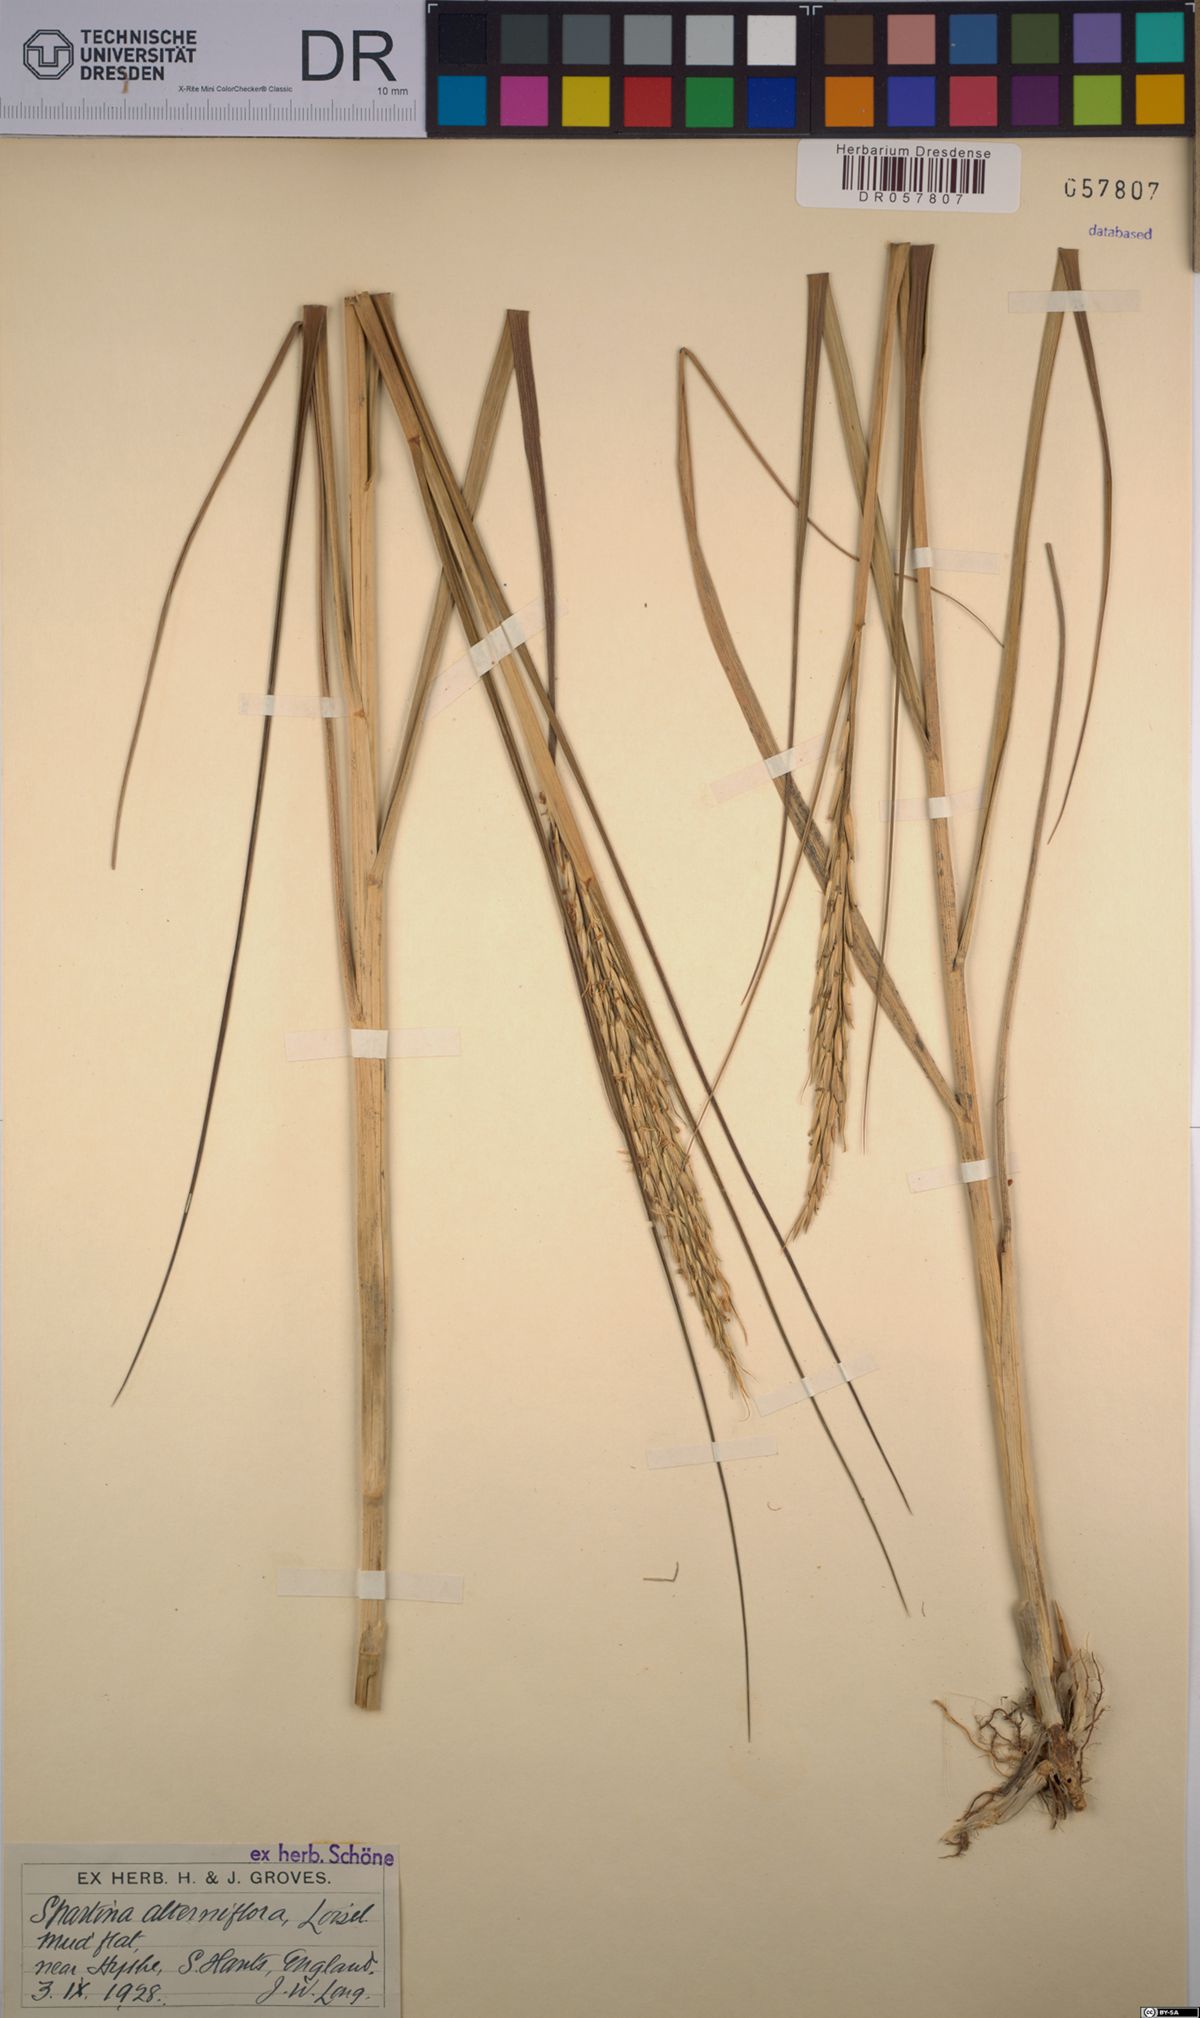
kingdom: Plantae
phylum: Tracheophyta
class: Liliopsida
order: Poales
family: Poaceae
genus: Sporobolus
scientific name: Sporobolus alterniflorus
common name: Atlantic cordgrass
